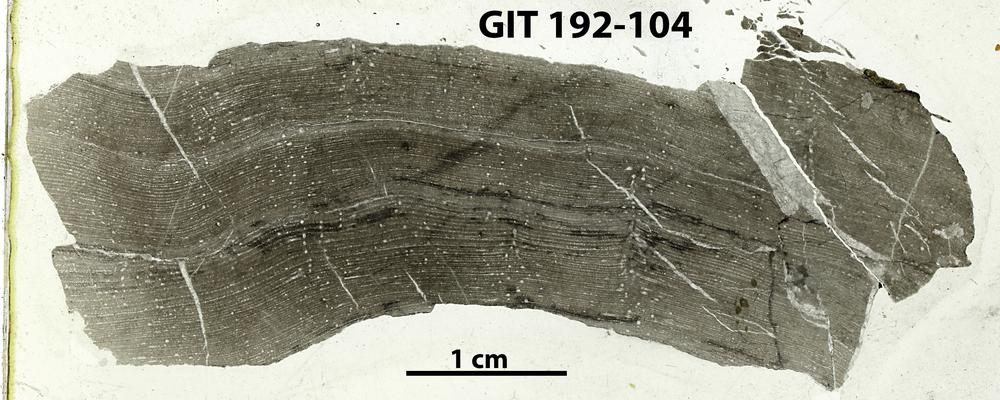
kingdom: Animalia
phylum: Porifera
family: Stromatoporidae
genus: Parallelostroma
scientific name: Parallelostroma
